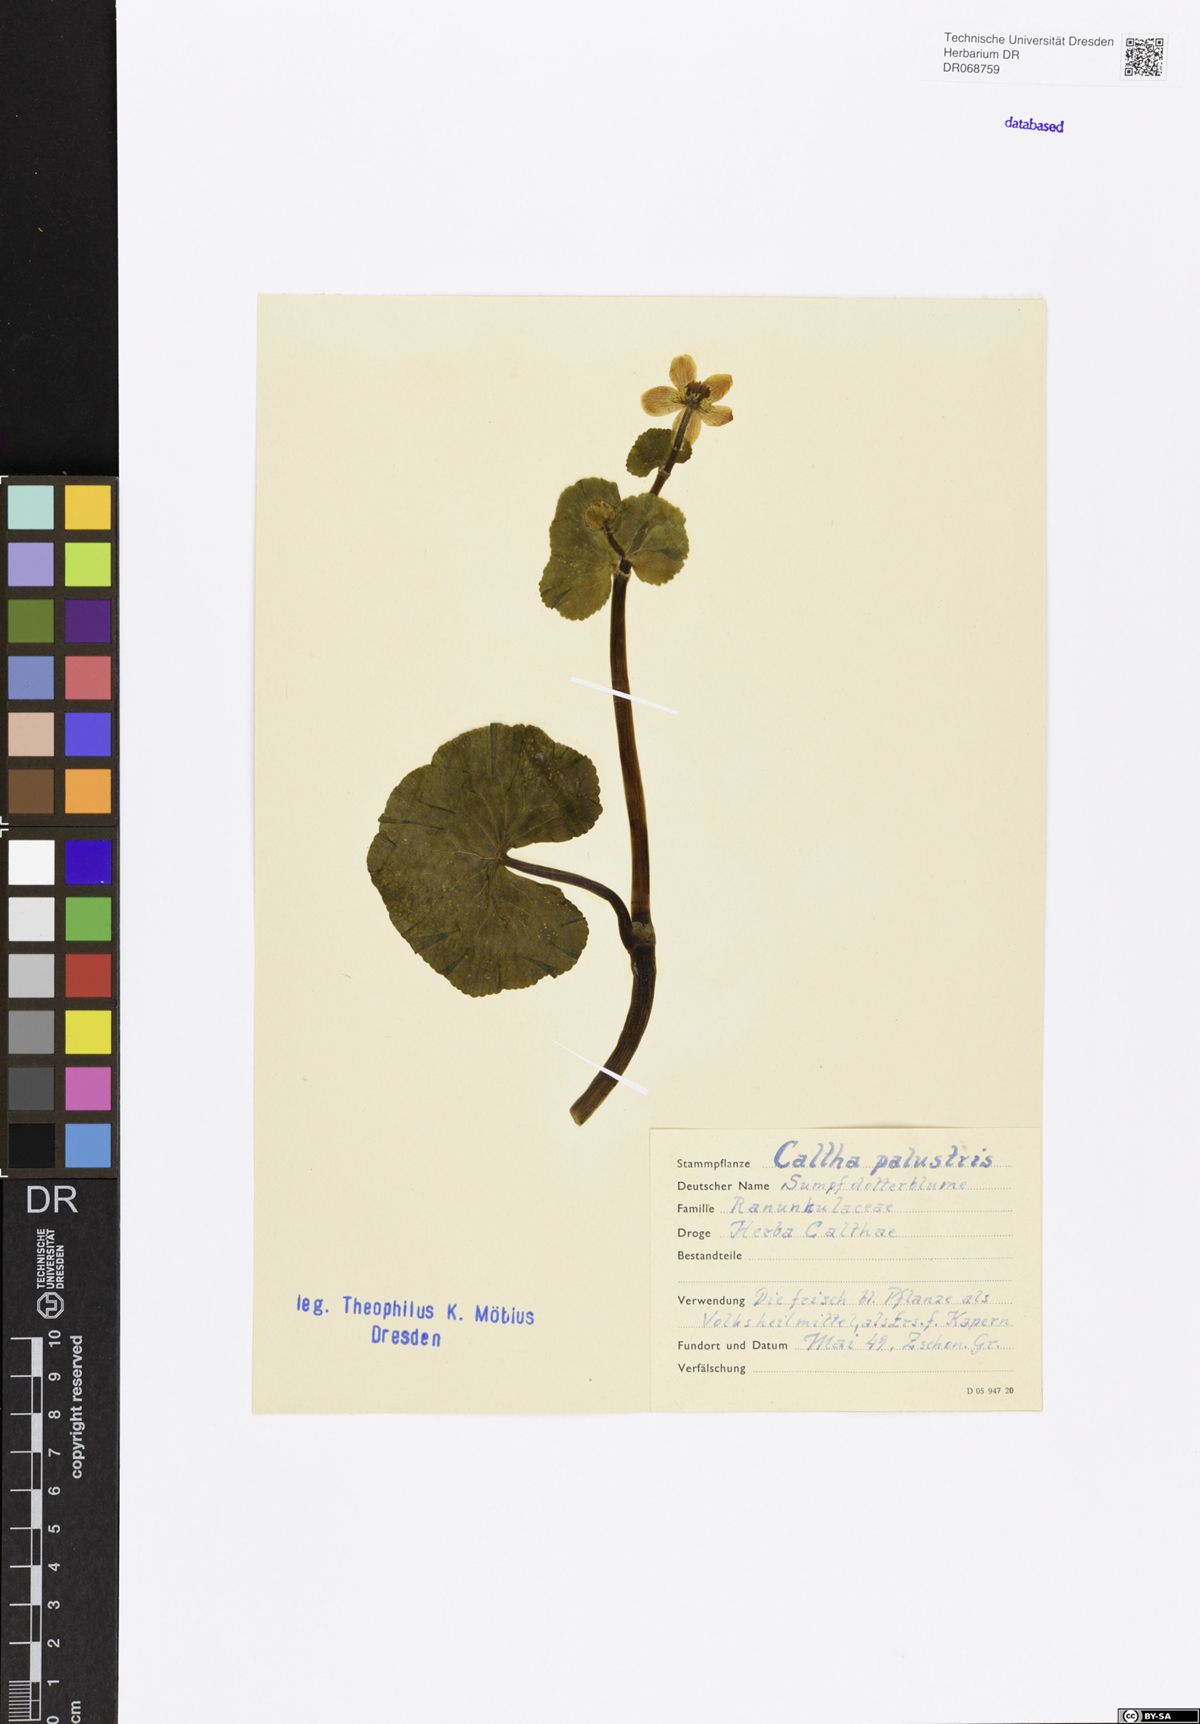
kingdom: Plantae
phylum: Tracheophyta
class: Magnoliopsida
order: Ranunculales
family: Ranunculaceae
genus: Caltha
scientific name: Caltha palustris
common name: Marsh marigold
